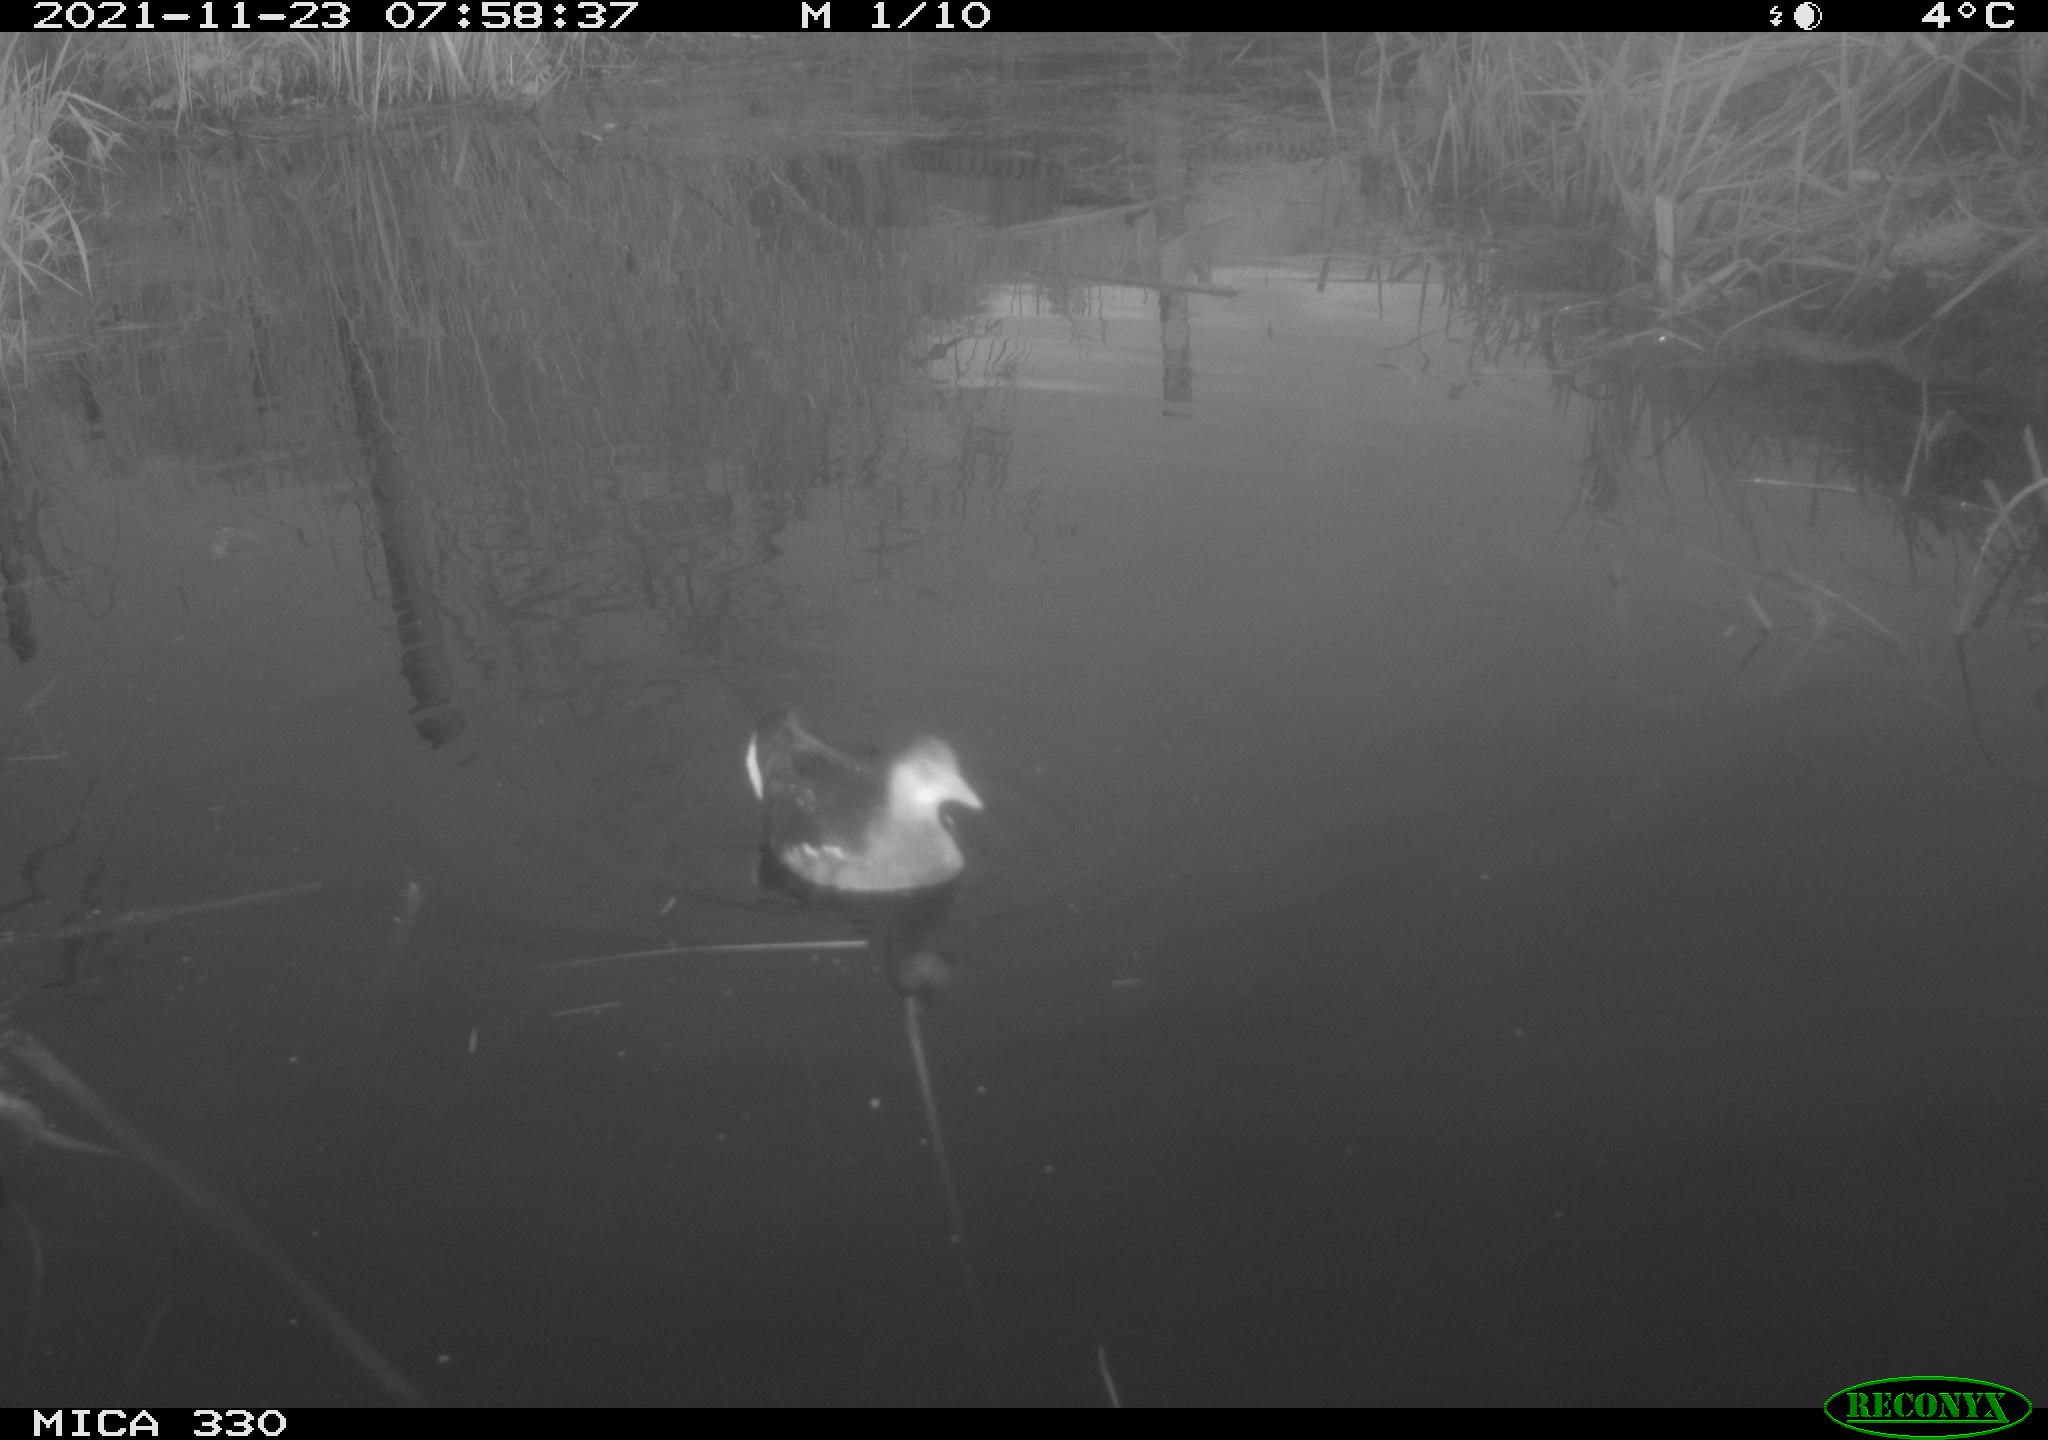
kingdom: Animalia
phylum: Chordata
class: Aves
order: Gruiformes
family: Rallidae
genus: Gallinula
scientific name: Gallinula chloropus
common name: Common moorhen
